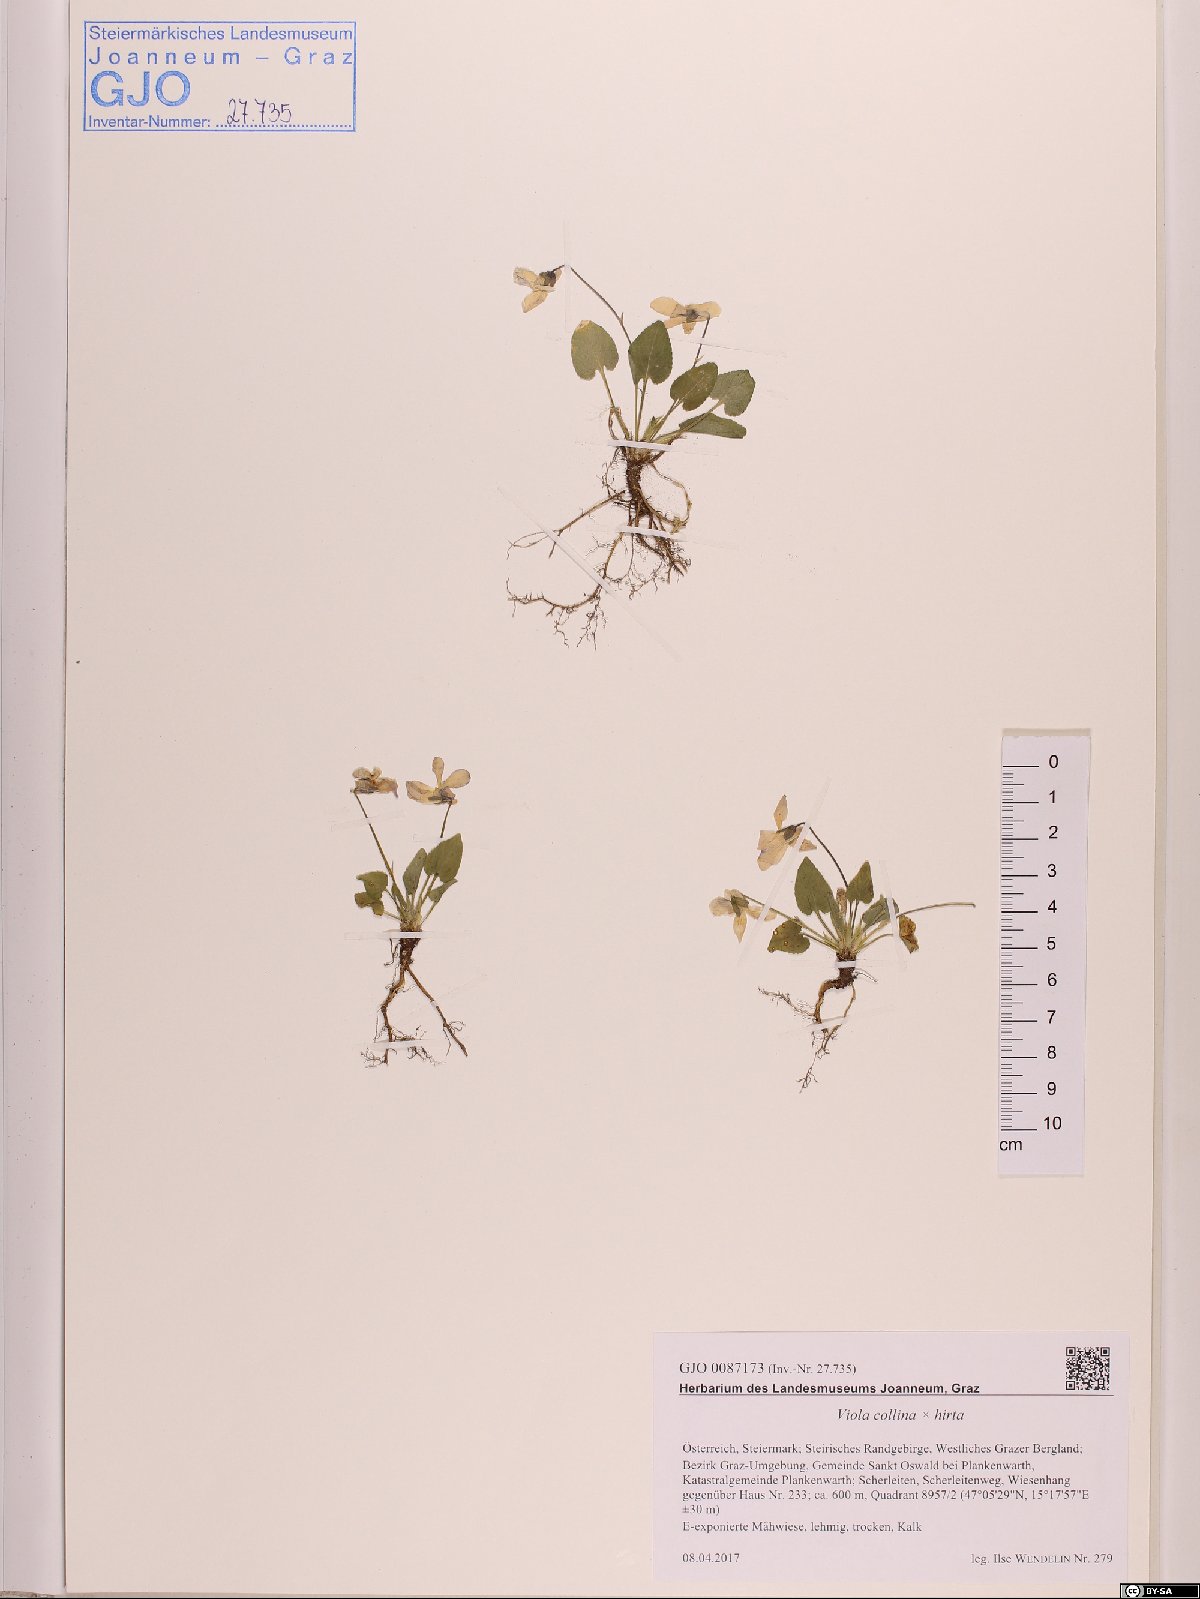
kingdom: Plantae
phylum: Tracheophyta
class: Magnoliopsida
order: Malpighiales
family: Violaceae
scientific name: Violaceae
